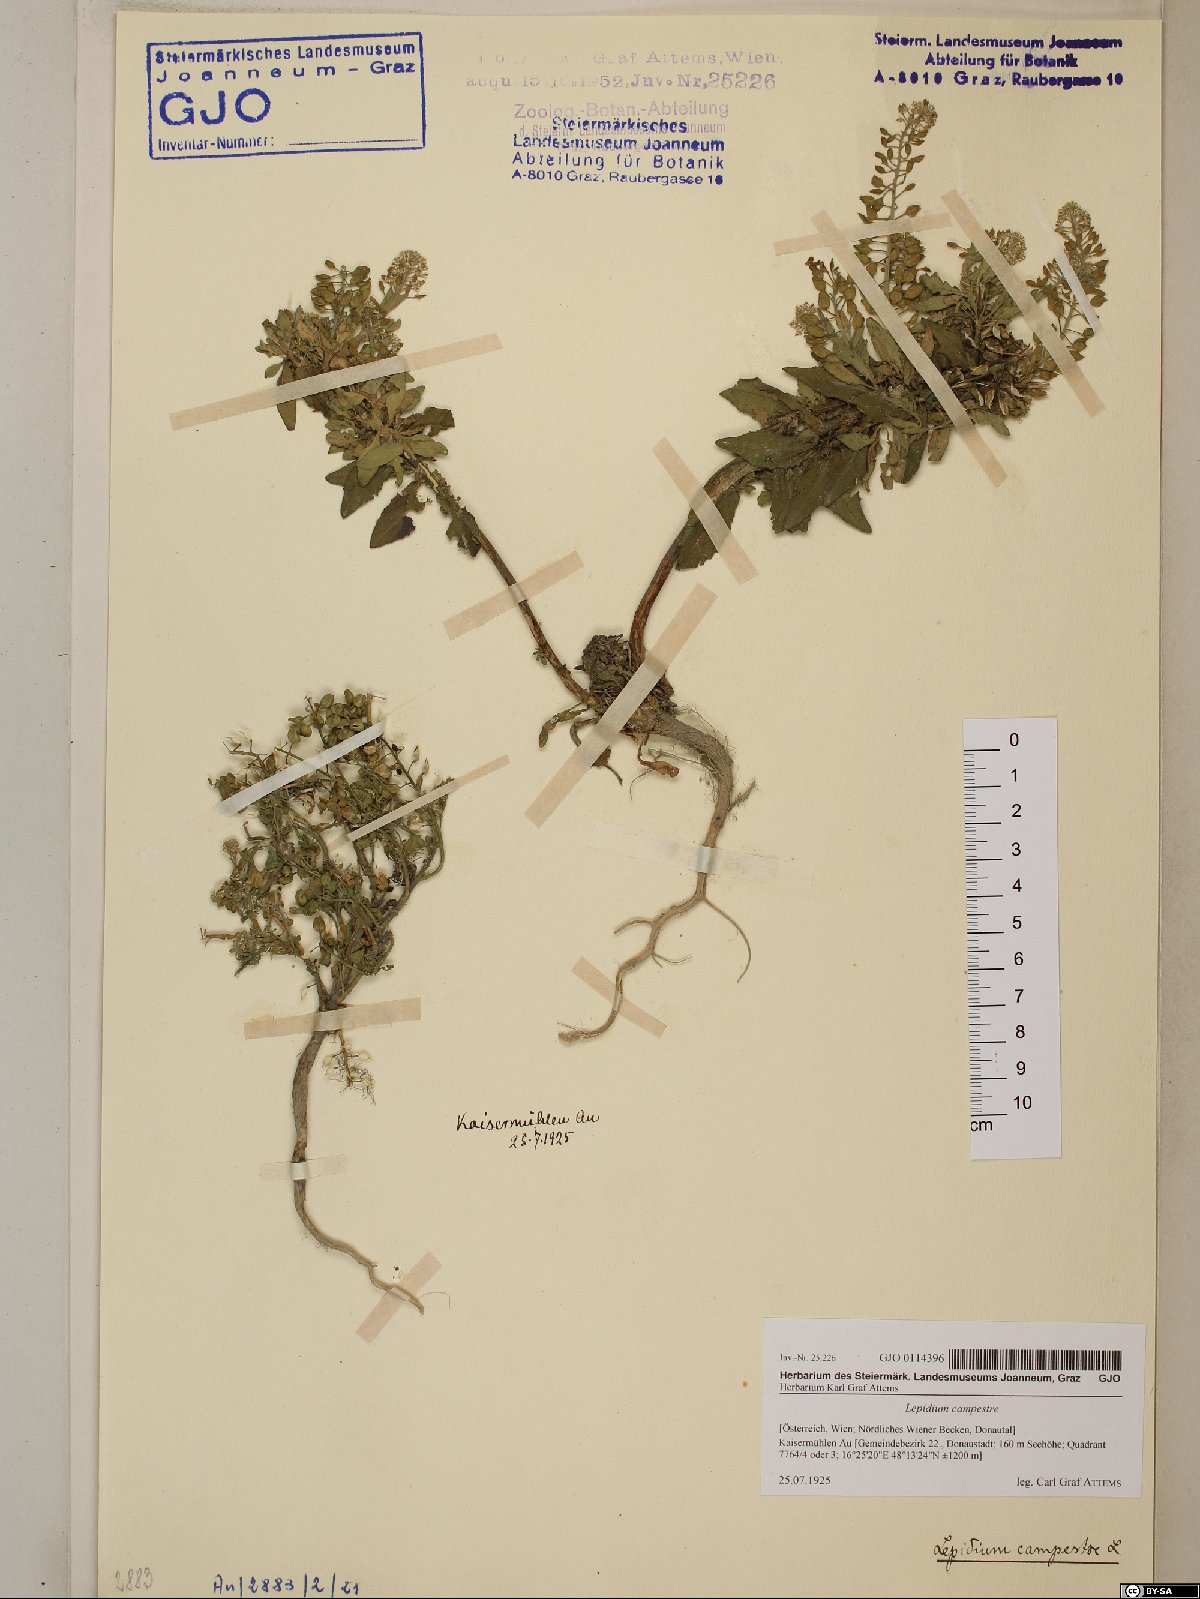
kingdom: Plantae
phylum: Tracheophyta
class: Magnoliopsida
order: Brassicales
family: Brassicaceae
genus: Lepidium
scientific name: Lepidium campestre
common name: Field pepperwort
